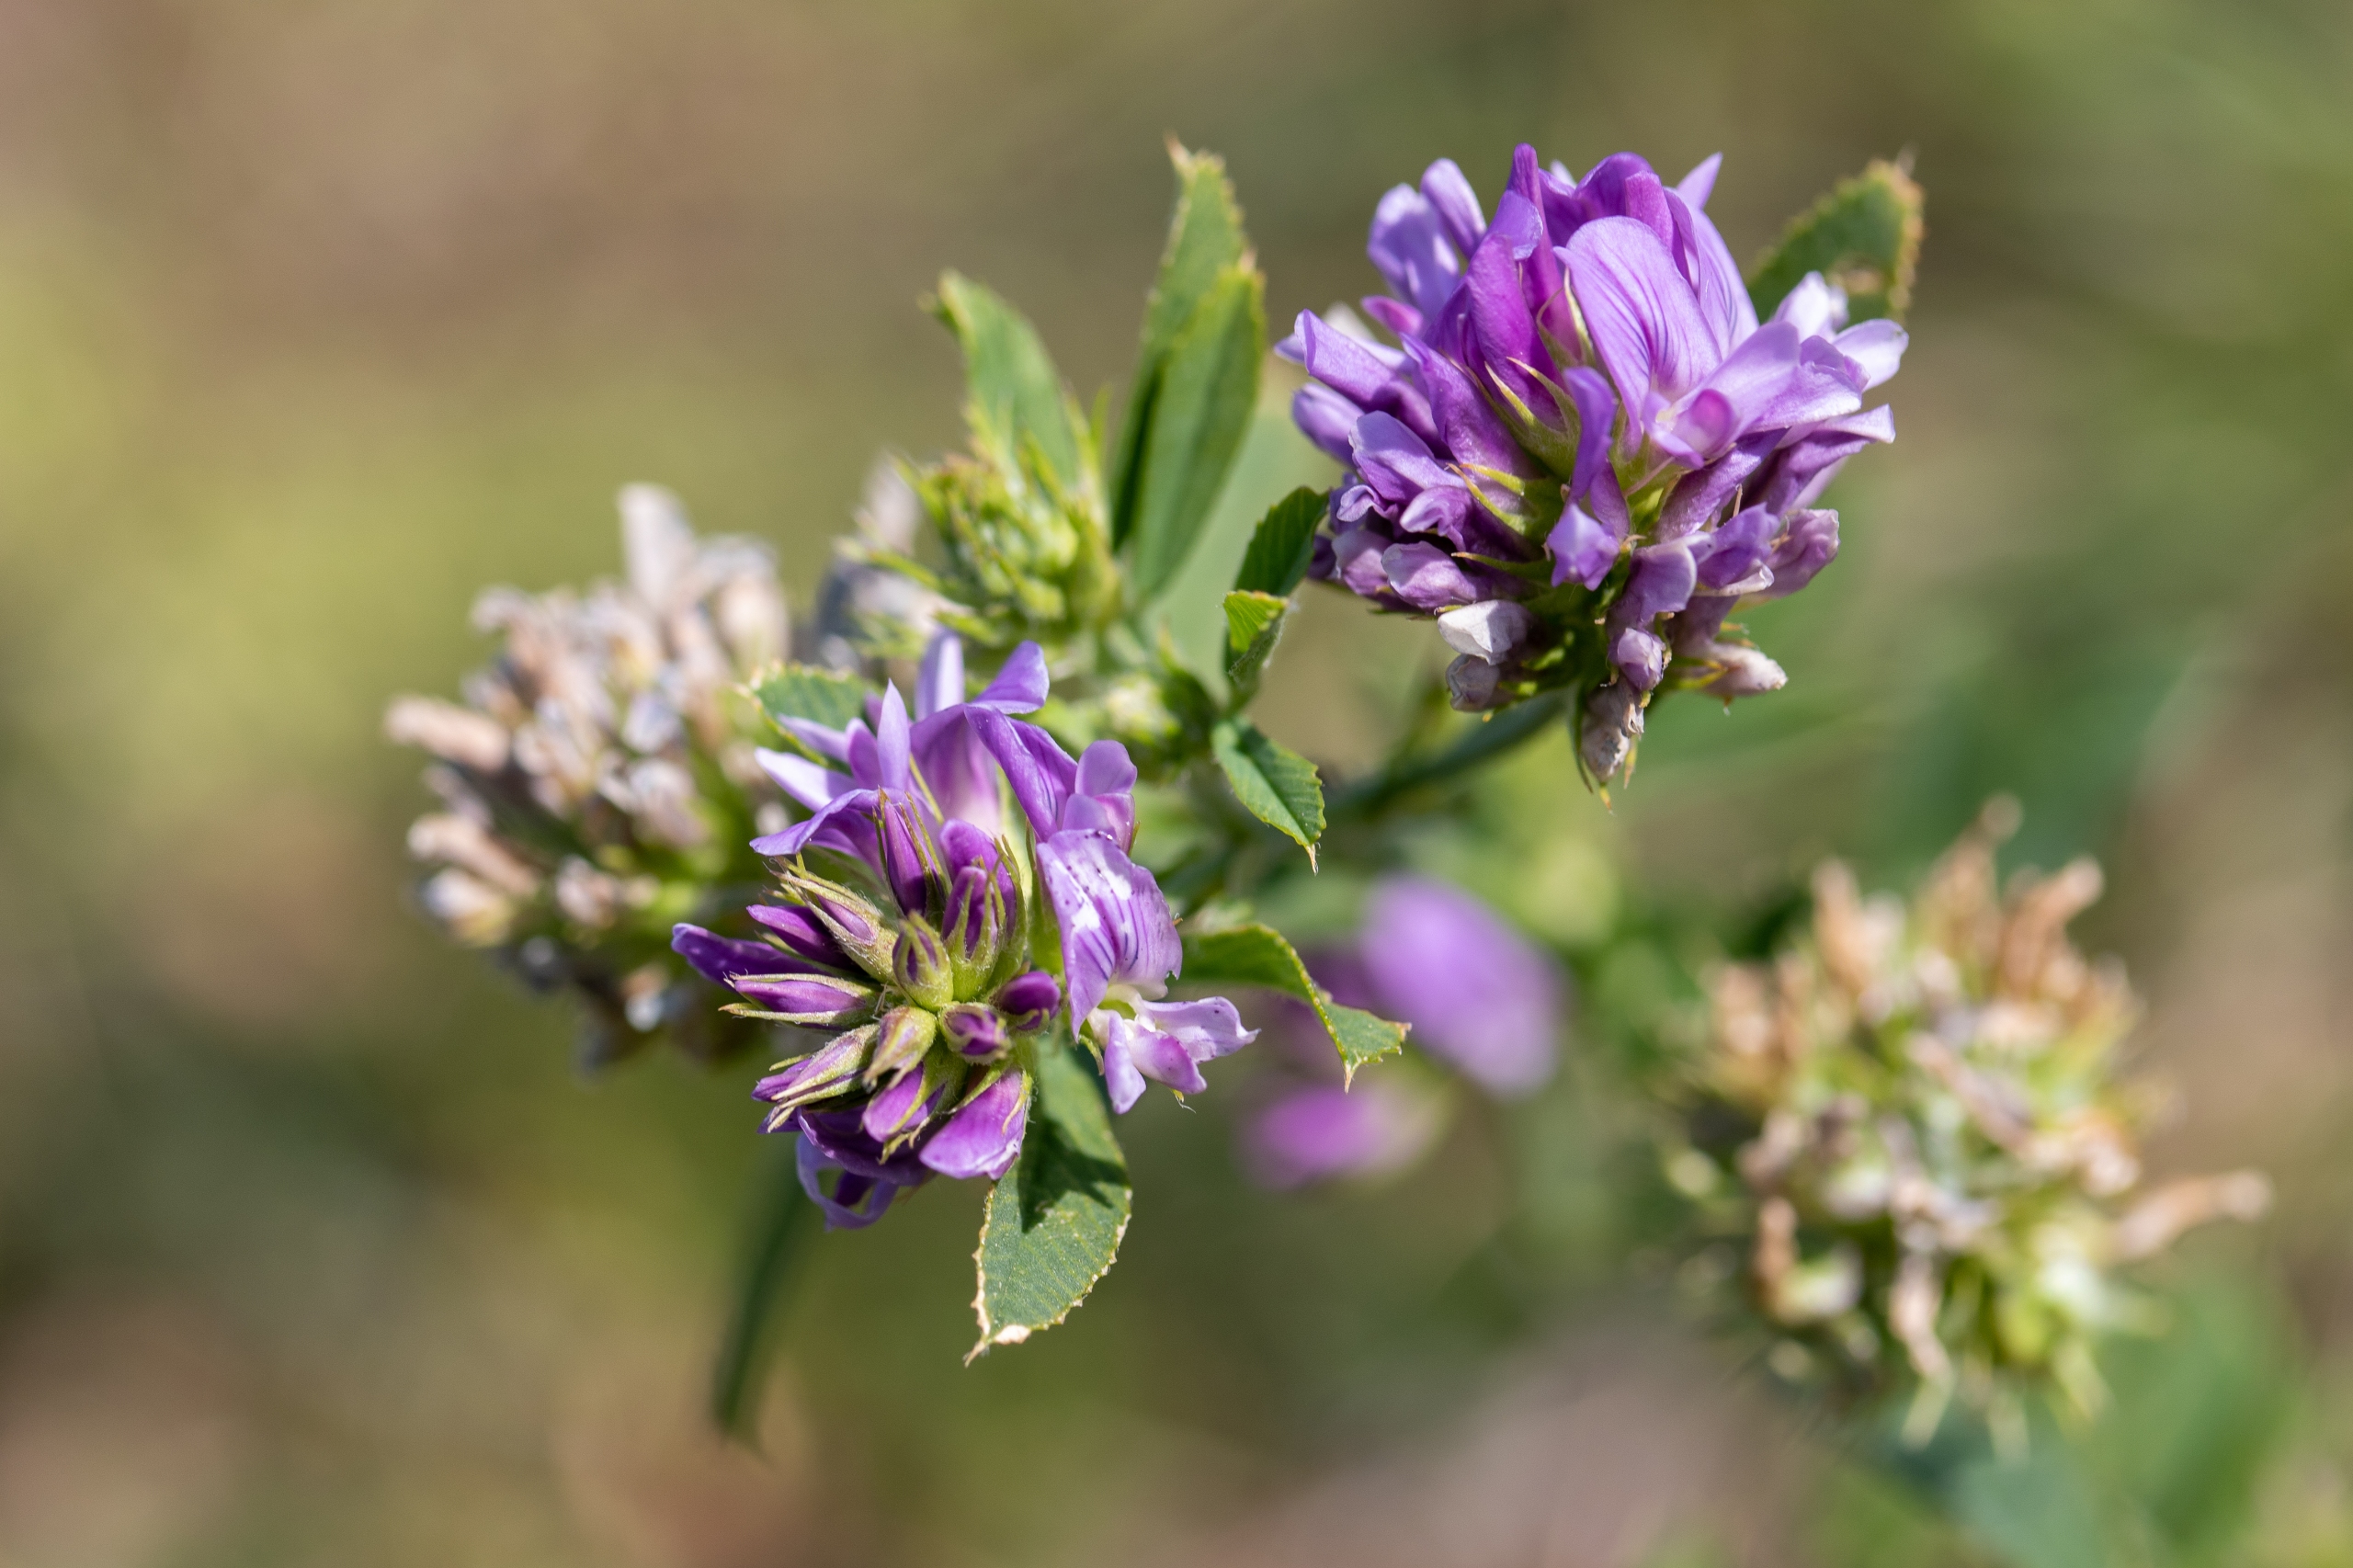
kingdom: Plantae
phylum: Tracheophyta
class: Magnoliopsida
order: Fabales
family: Fabaceae
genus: Medicago
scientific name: Medicago sativa
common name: Foderlucerne
